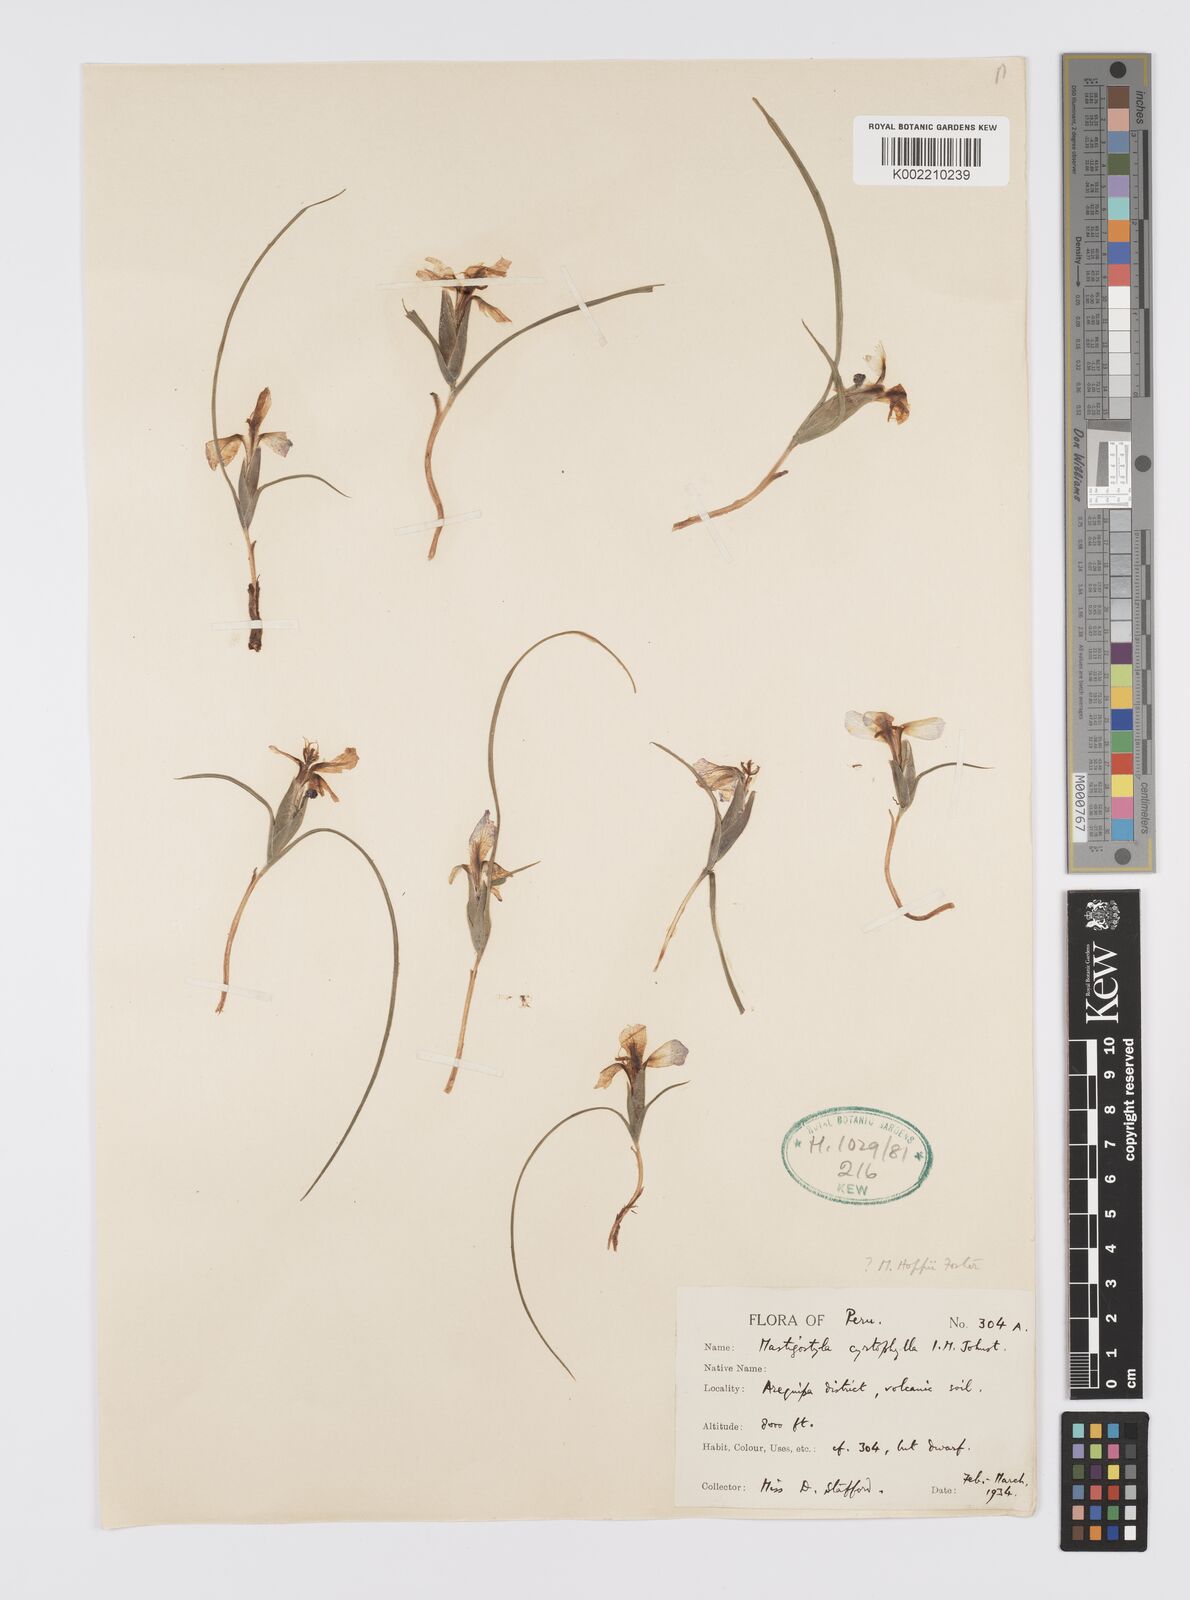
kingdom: Plantae
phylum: Tracheophyta
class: Liliopsida
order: Asparagales
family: Iridaceae
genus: Mastigostyla
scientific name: Mastigostyla cyrtophylla
